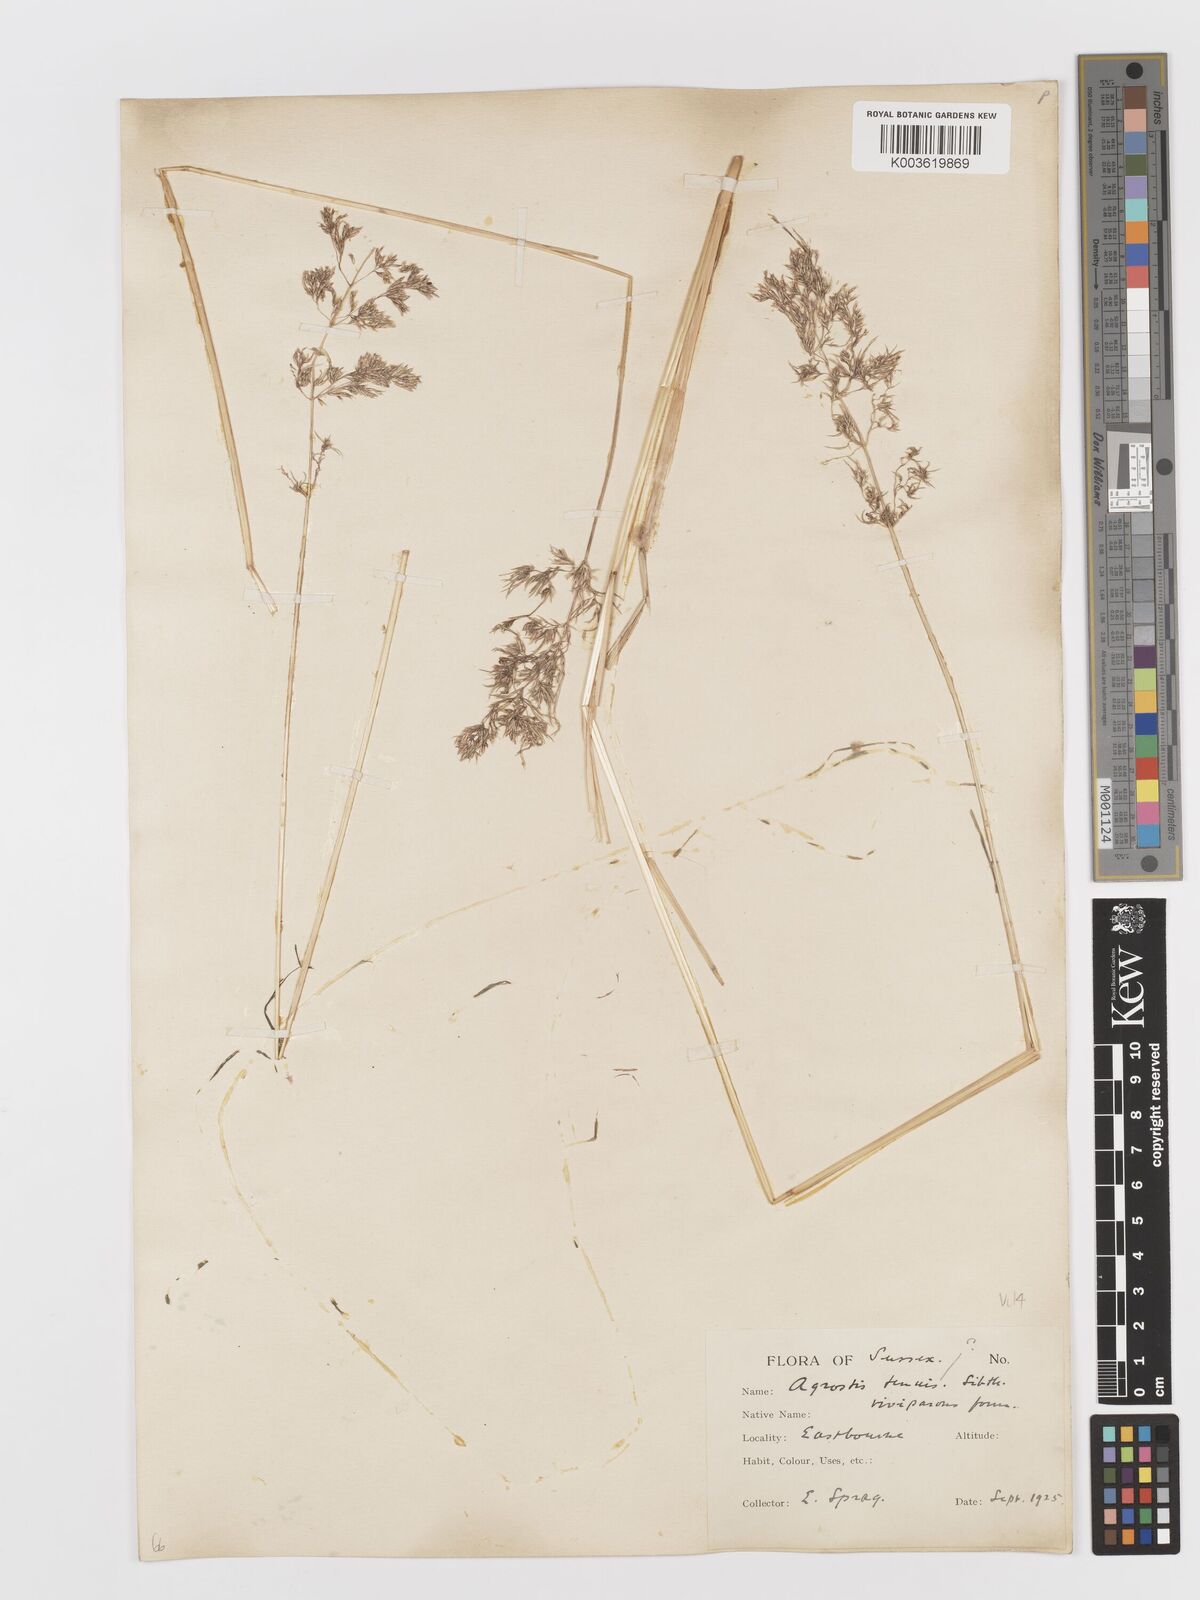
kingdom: Plantae
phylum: Tracheophyta
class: Liliopsida
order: Poales
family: Poaceae
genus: Deschampsia
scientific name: Deschampsia cespitosa
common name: Tufted hair-grass
